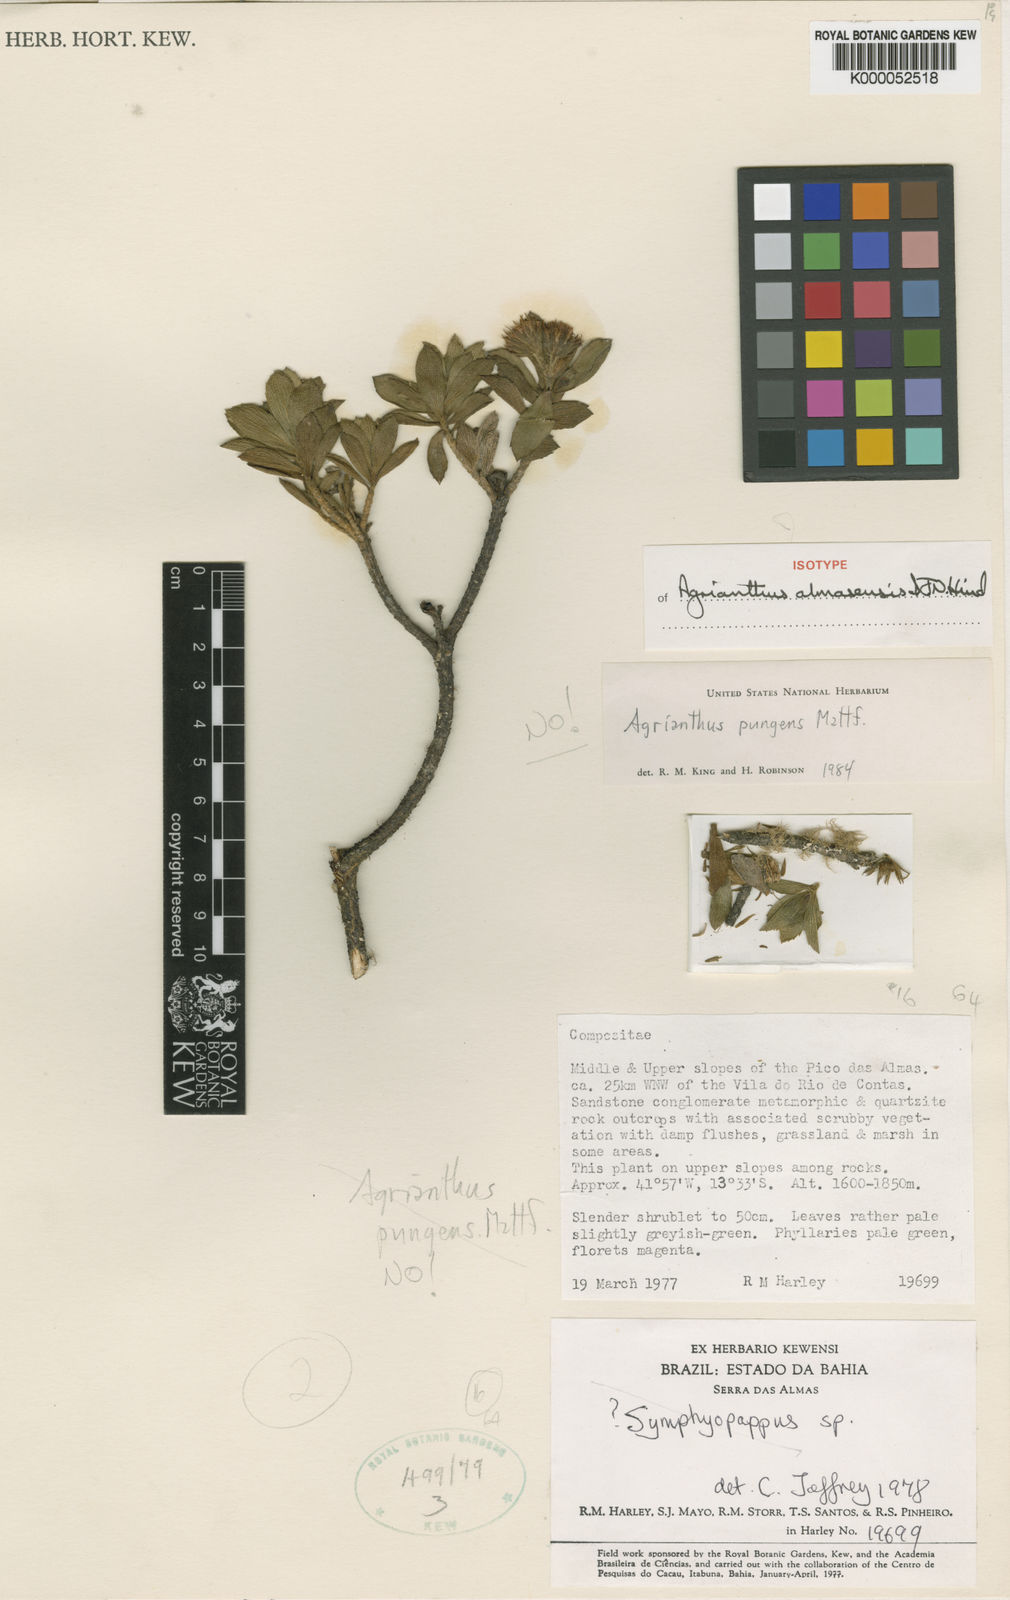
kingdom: Plantae
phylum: Tracheophyta
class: Magnoliopsida
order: Asterales
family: Asteraceae
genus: Agrianthus
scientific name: Agrianthus almasensis
